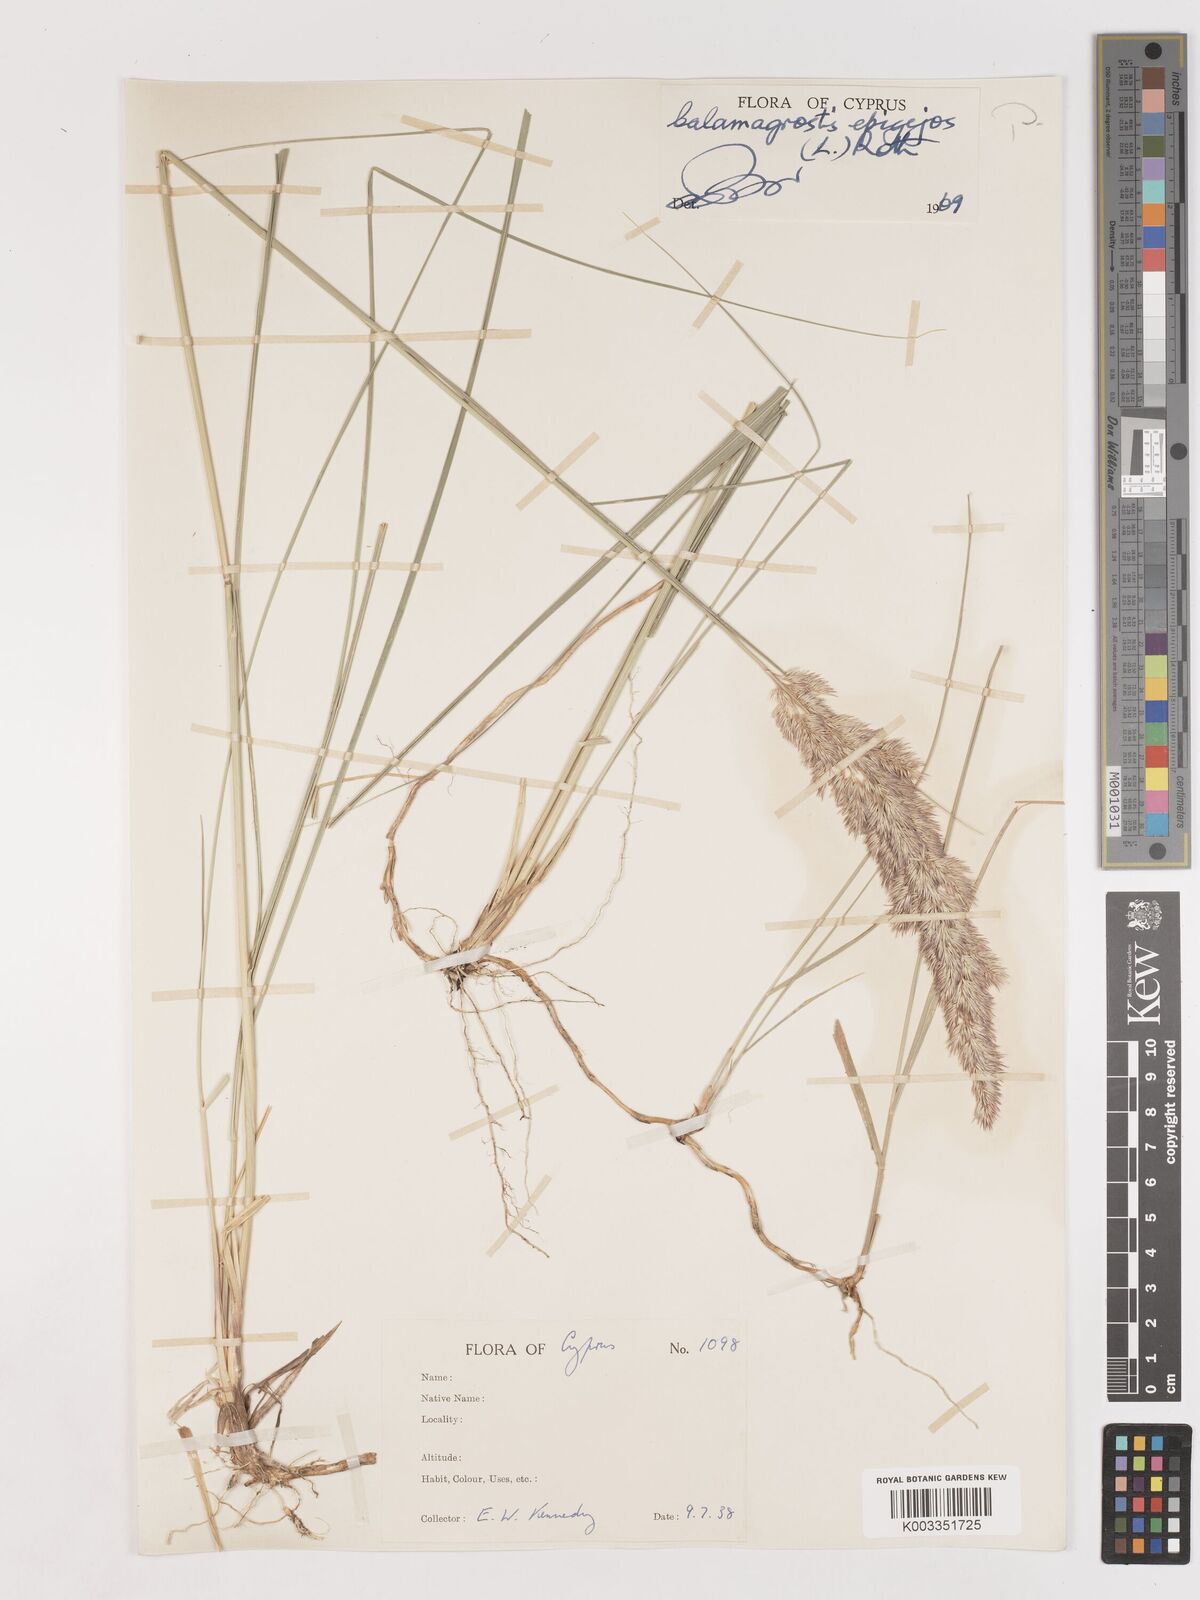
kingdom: Plantae
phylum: Tracheophyta
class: Liliopsida
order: Poales
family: Poaceae
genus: Calamagrostis
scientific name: Calamagrostis epigejos
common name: Wood small-reed
